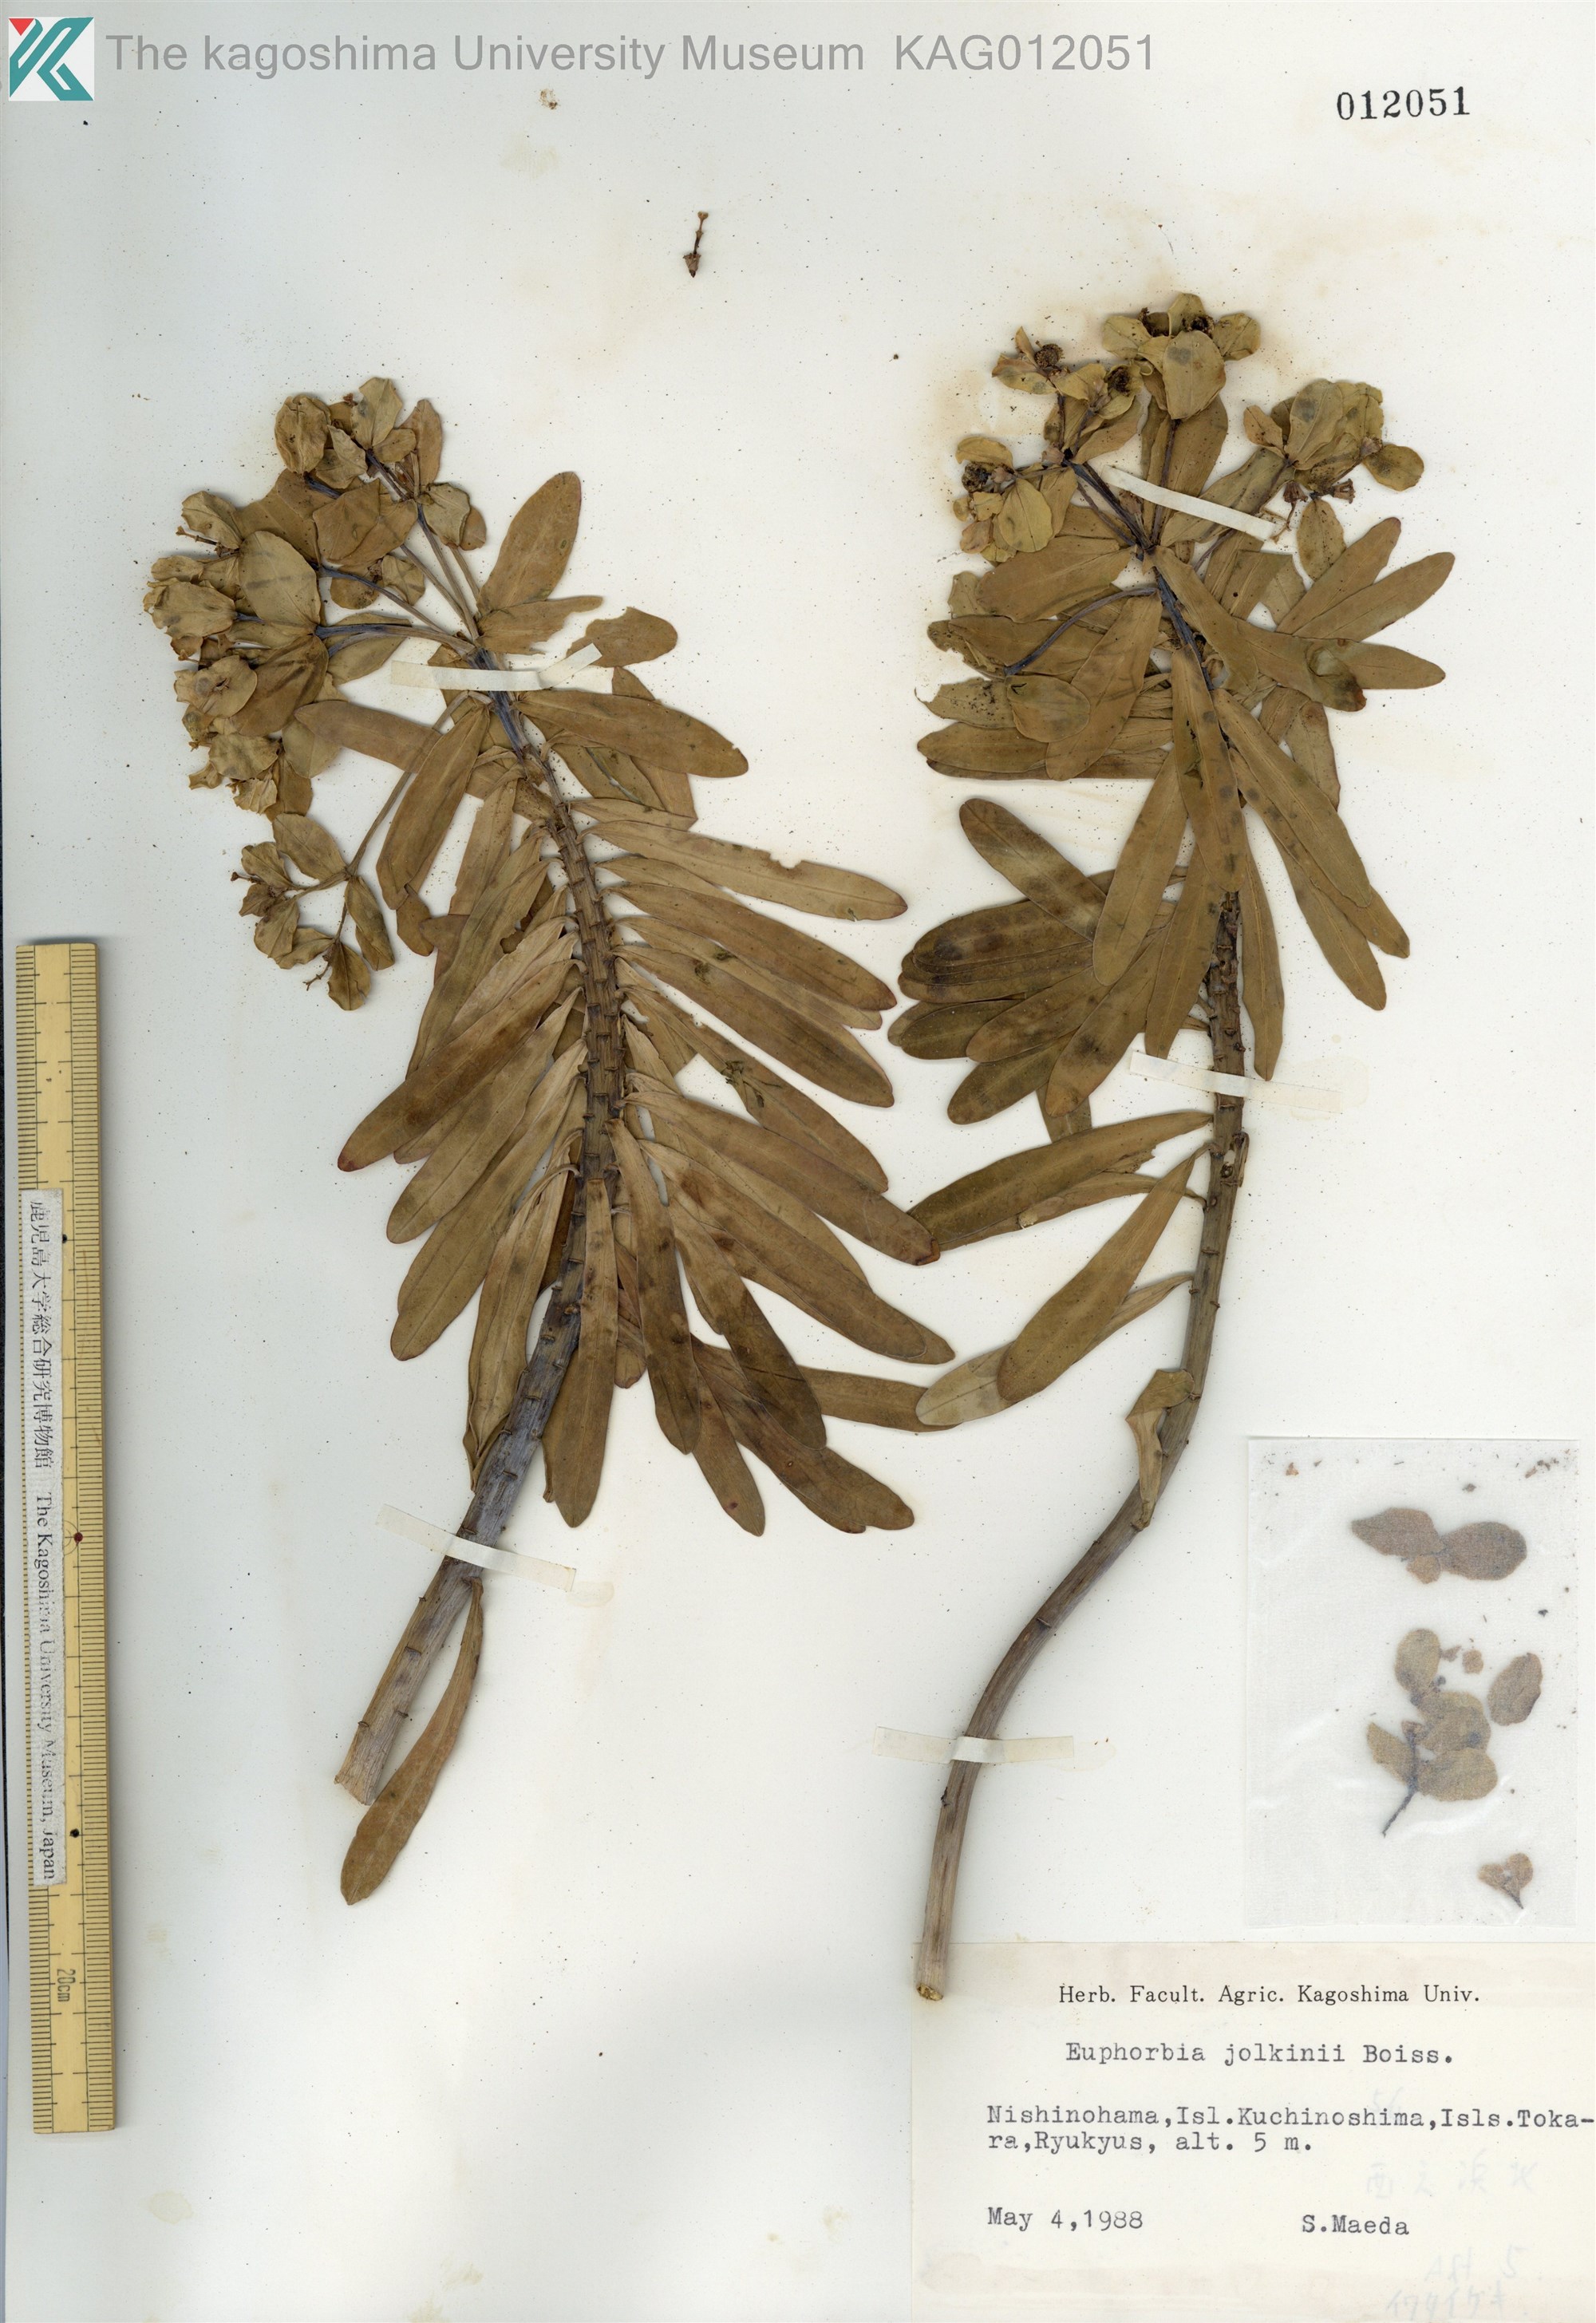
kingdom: Plantae
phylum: Tracheophyta
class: Magnoliopsida
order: Malpighiales
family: Euphorbiaceae
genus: Euphorbia
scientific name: Euphorbia jolkinii
